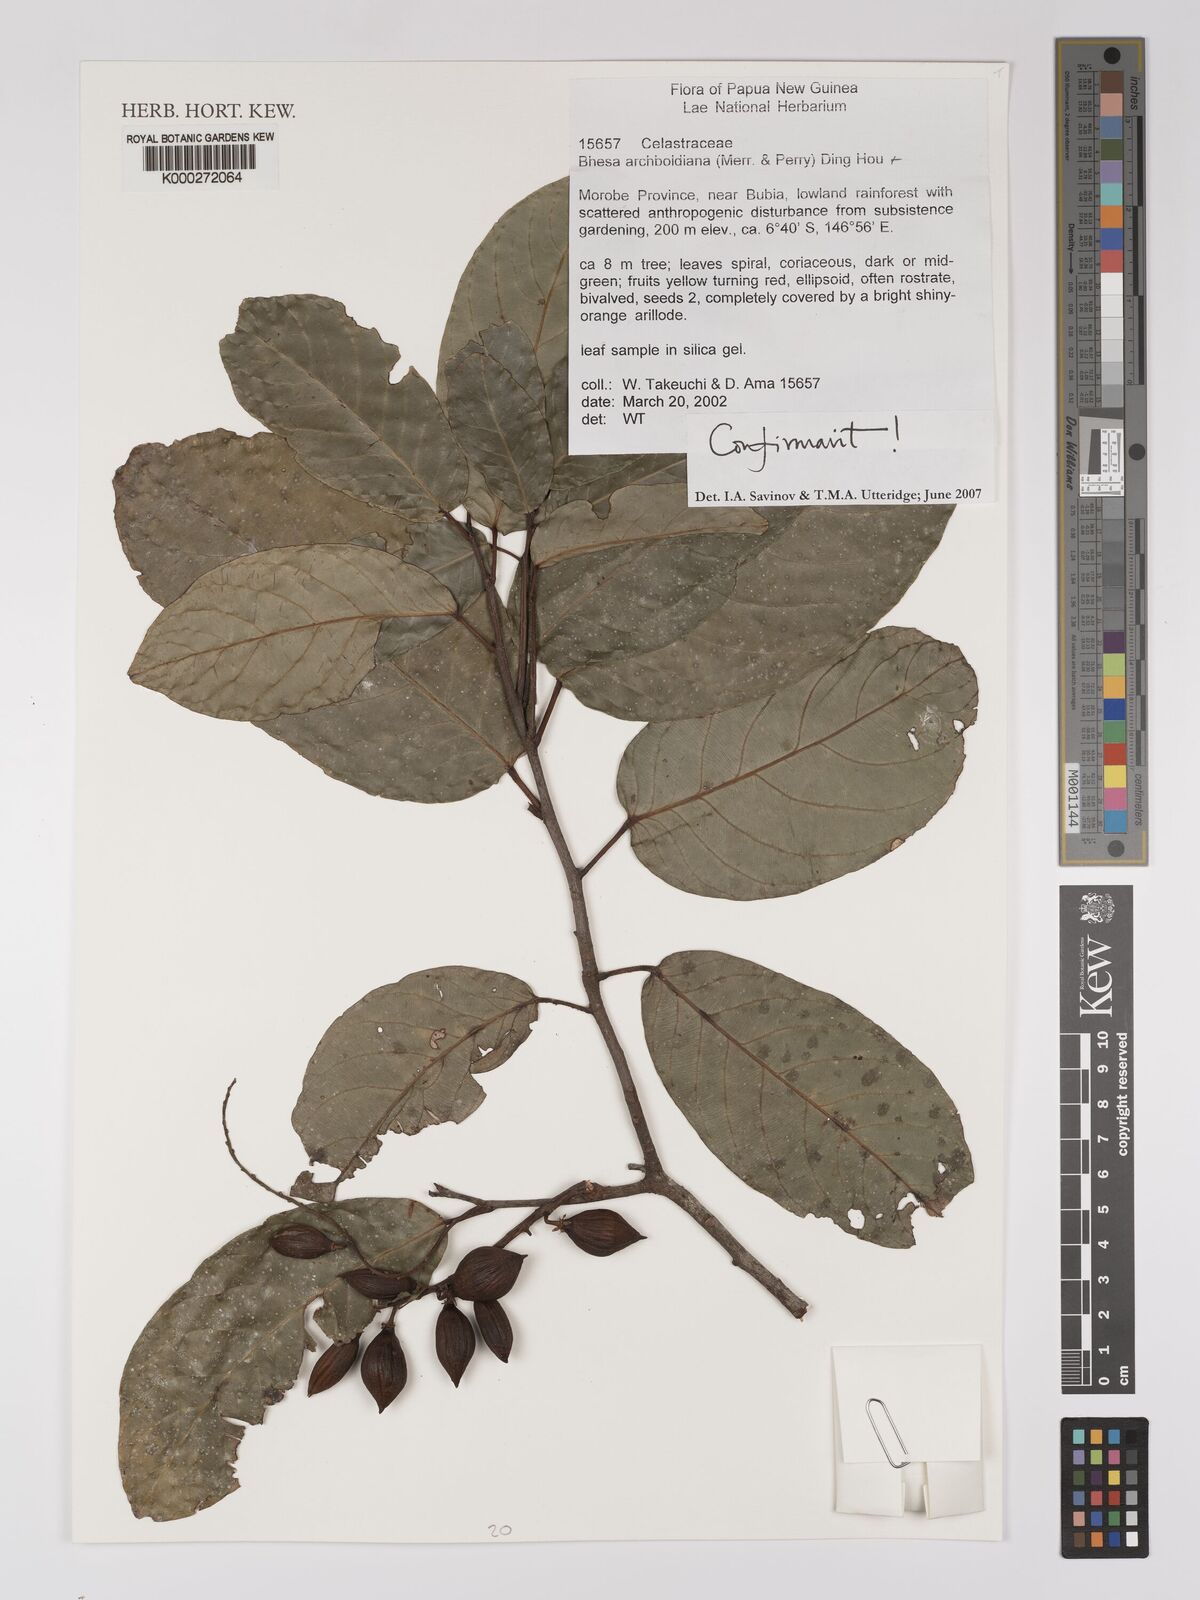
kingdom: Plantae
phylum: Tracheophyta
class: Magnoliopsida
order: Malpighiales
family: Centroplacaceae
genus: Bhesa
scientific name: Bhesa archboldiana
